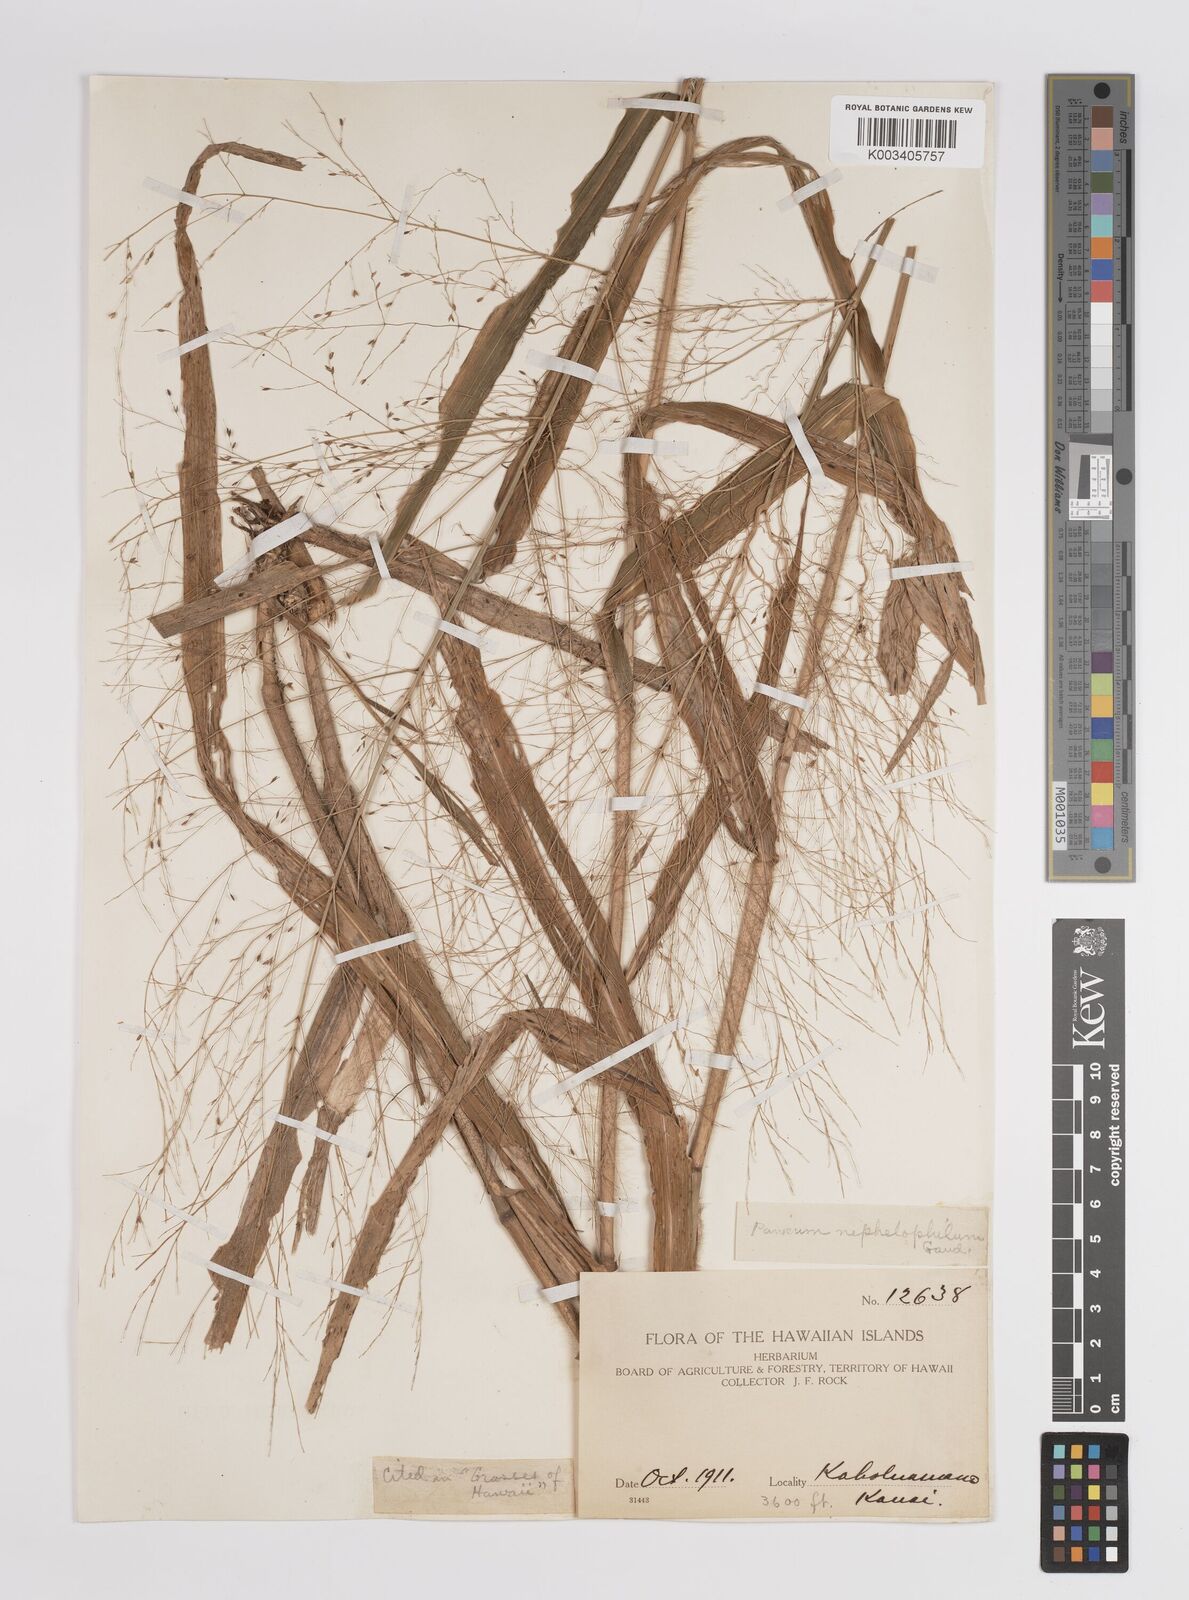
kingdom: Plantae
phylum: Tracheophyta
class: Liliopsida
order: Poales
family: Poaceae
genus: Panicum
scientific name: Panicum nephelophilum
